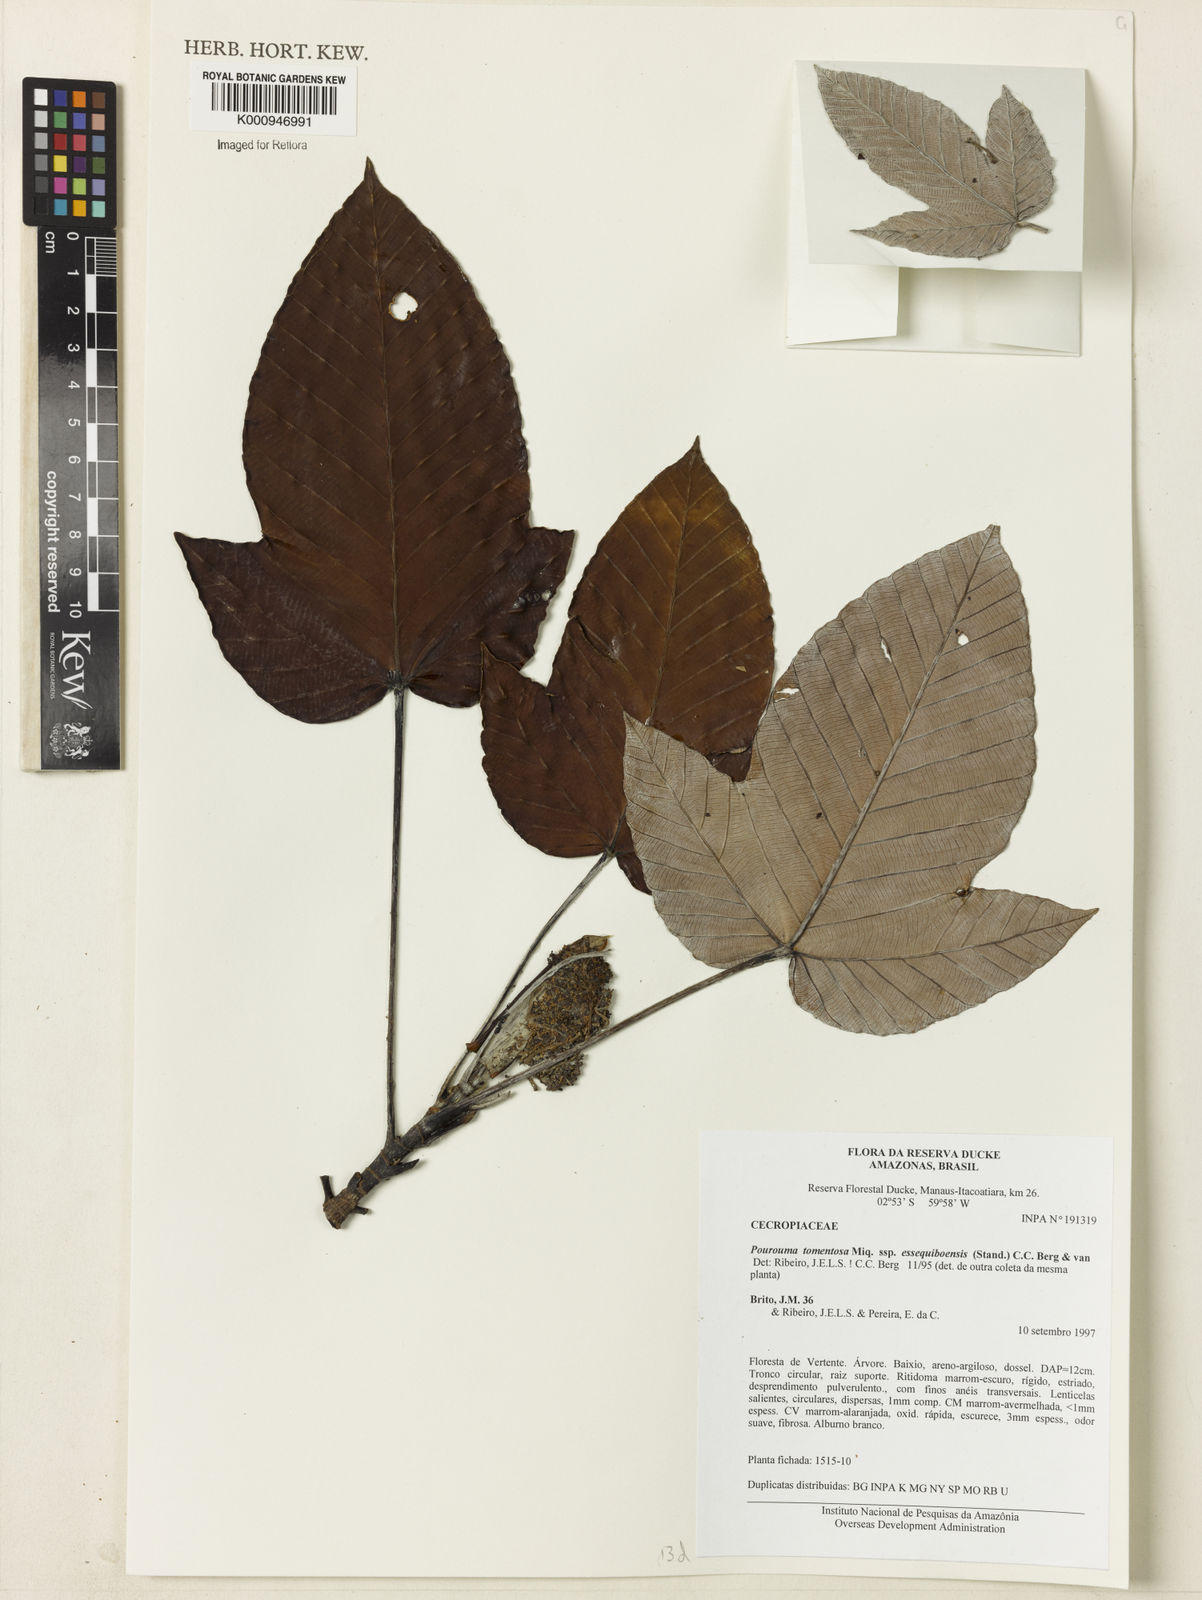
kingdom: Plantae
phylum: Tracheophyta
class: Magnoliopsida
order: Rosales
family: Urticaceae
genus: Pourouma
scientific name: Pourouma tomentosa
